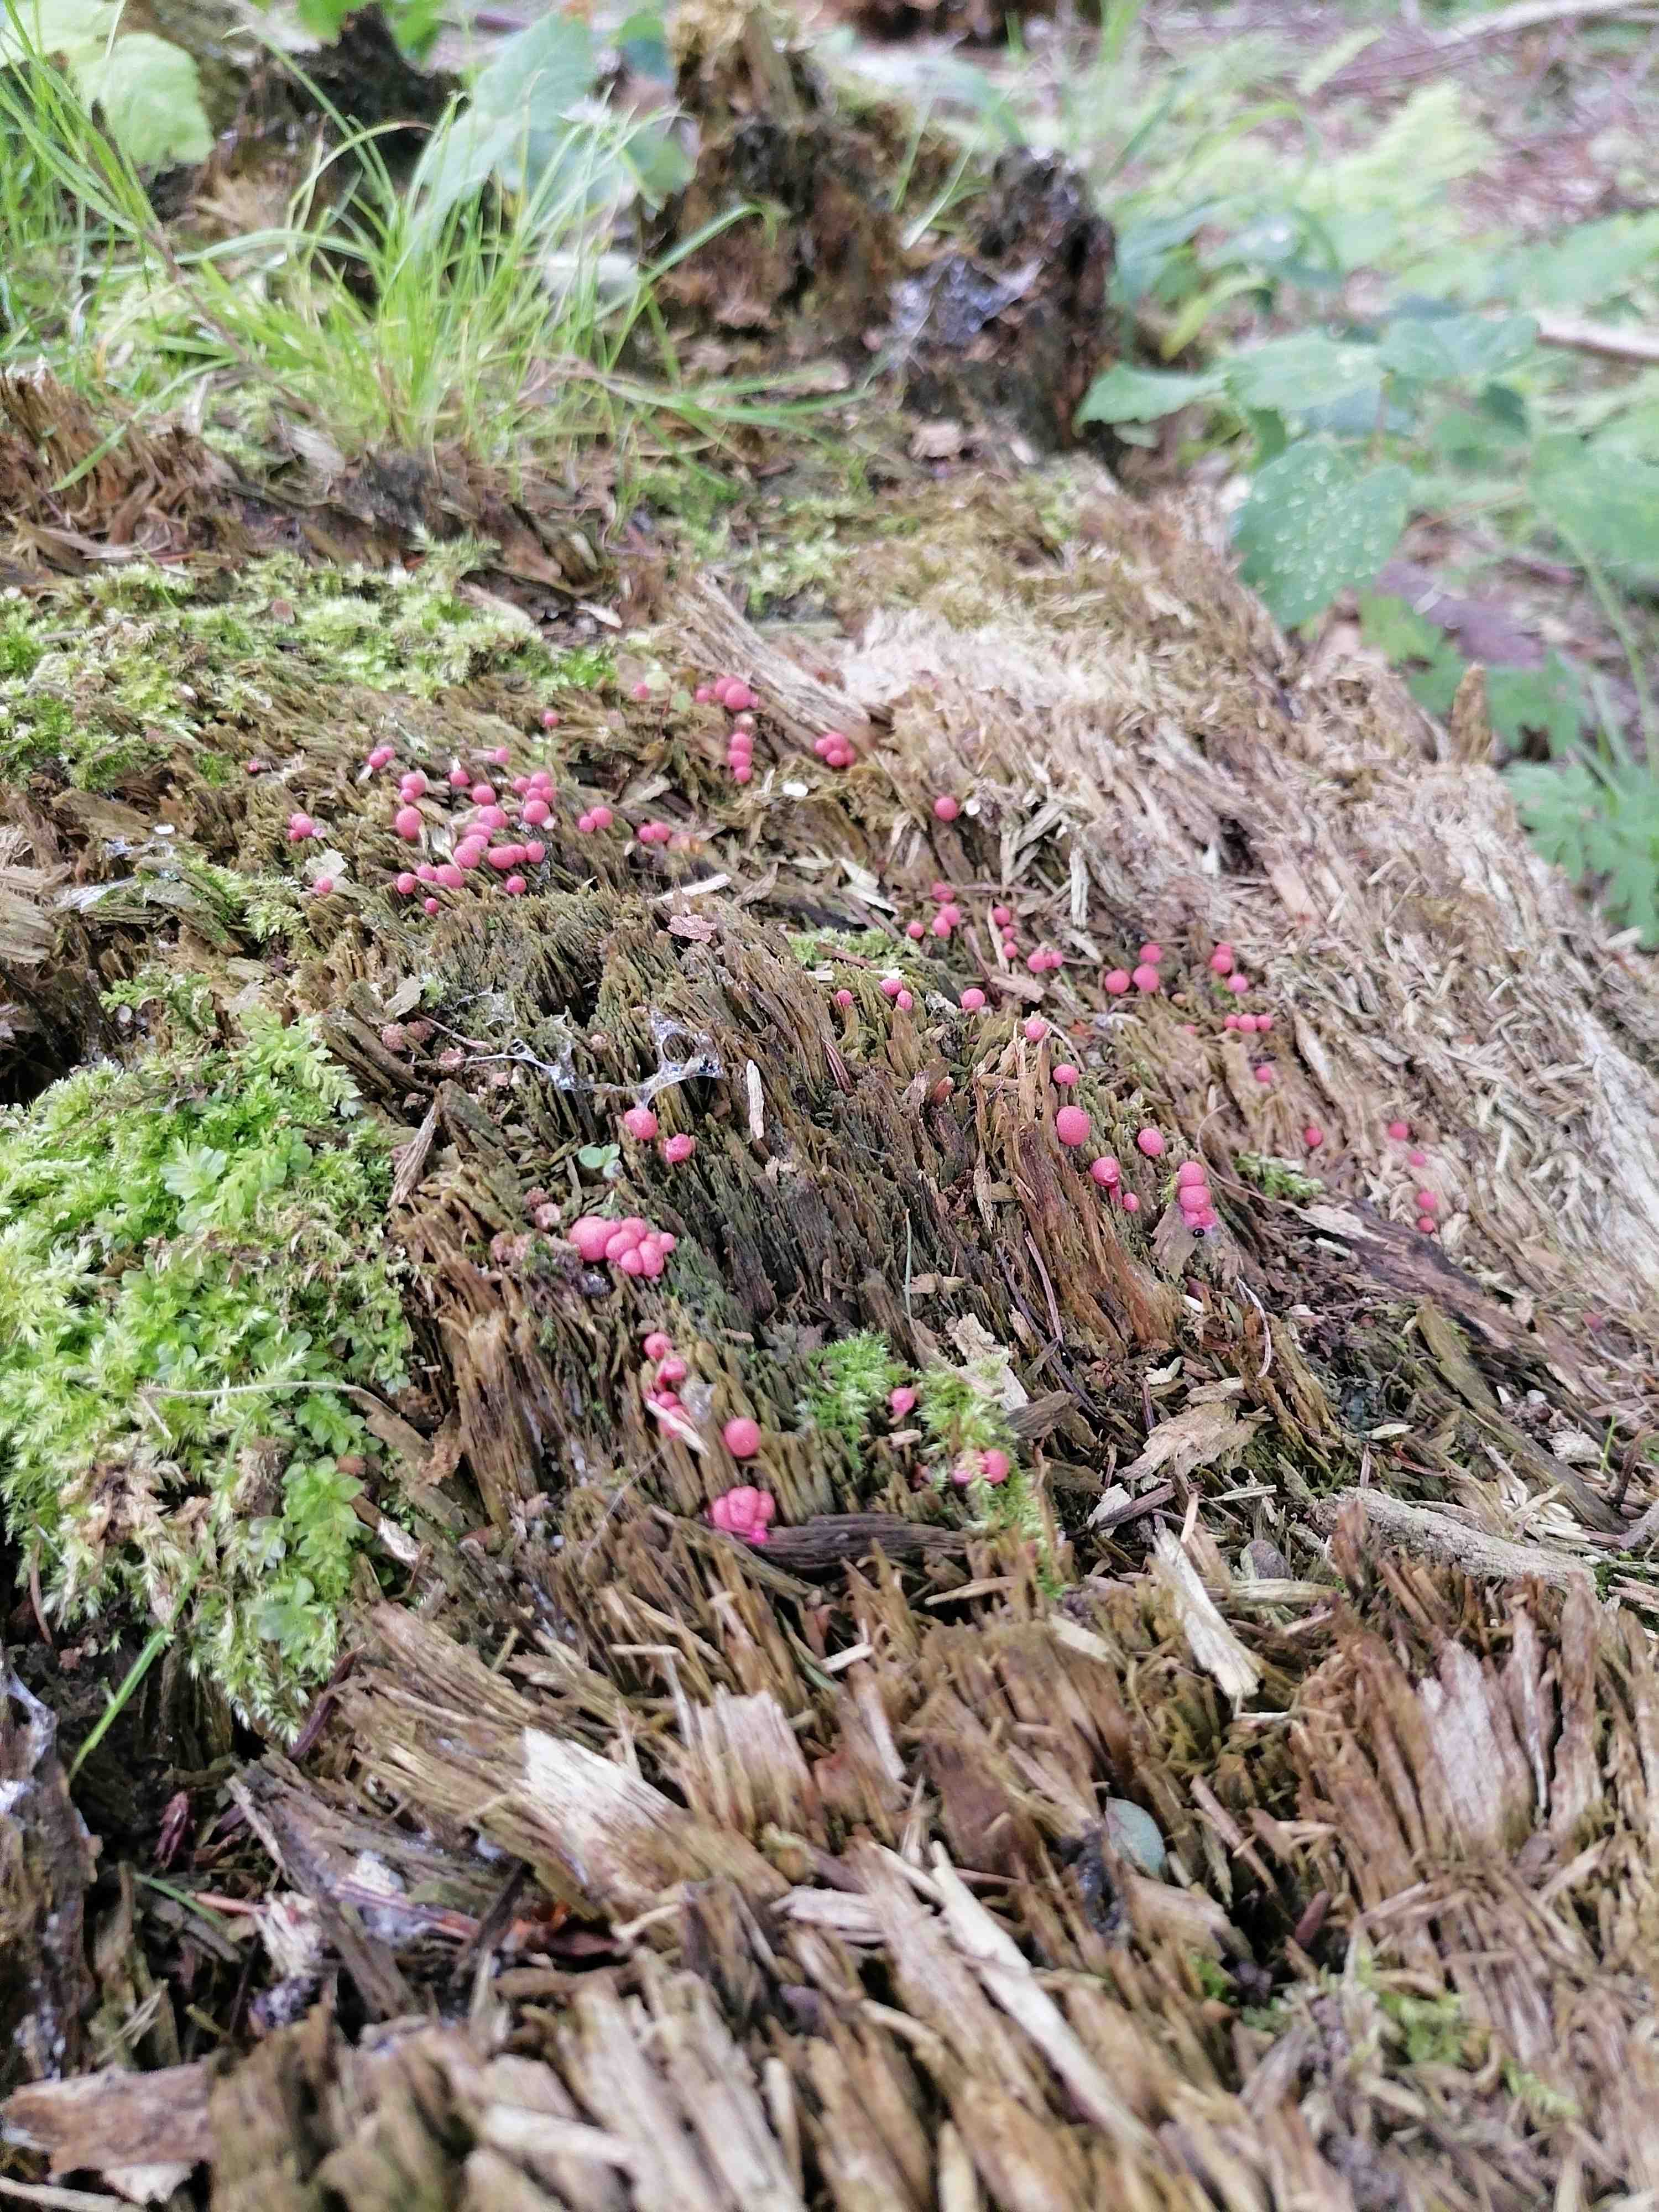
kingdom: Protozoa
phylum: Mycetozoa
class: Myxomycetes
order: Cribrariales
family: Tubiferaceae
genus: Lycogala
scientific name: Lycogala
